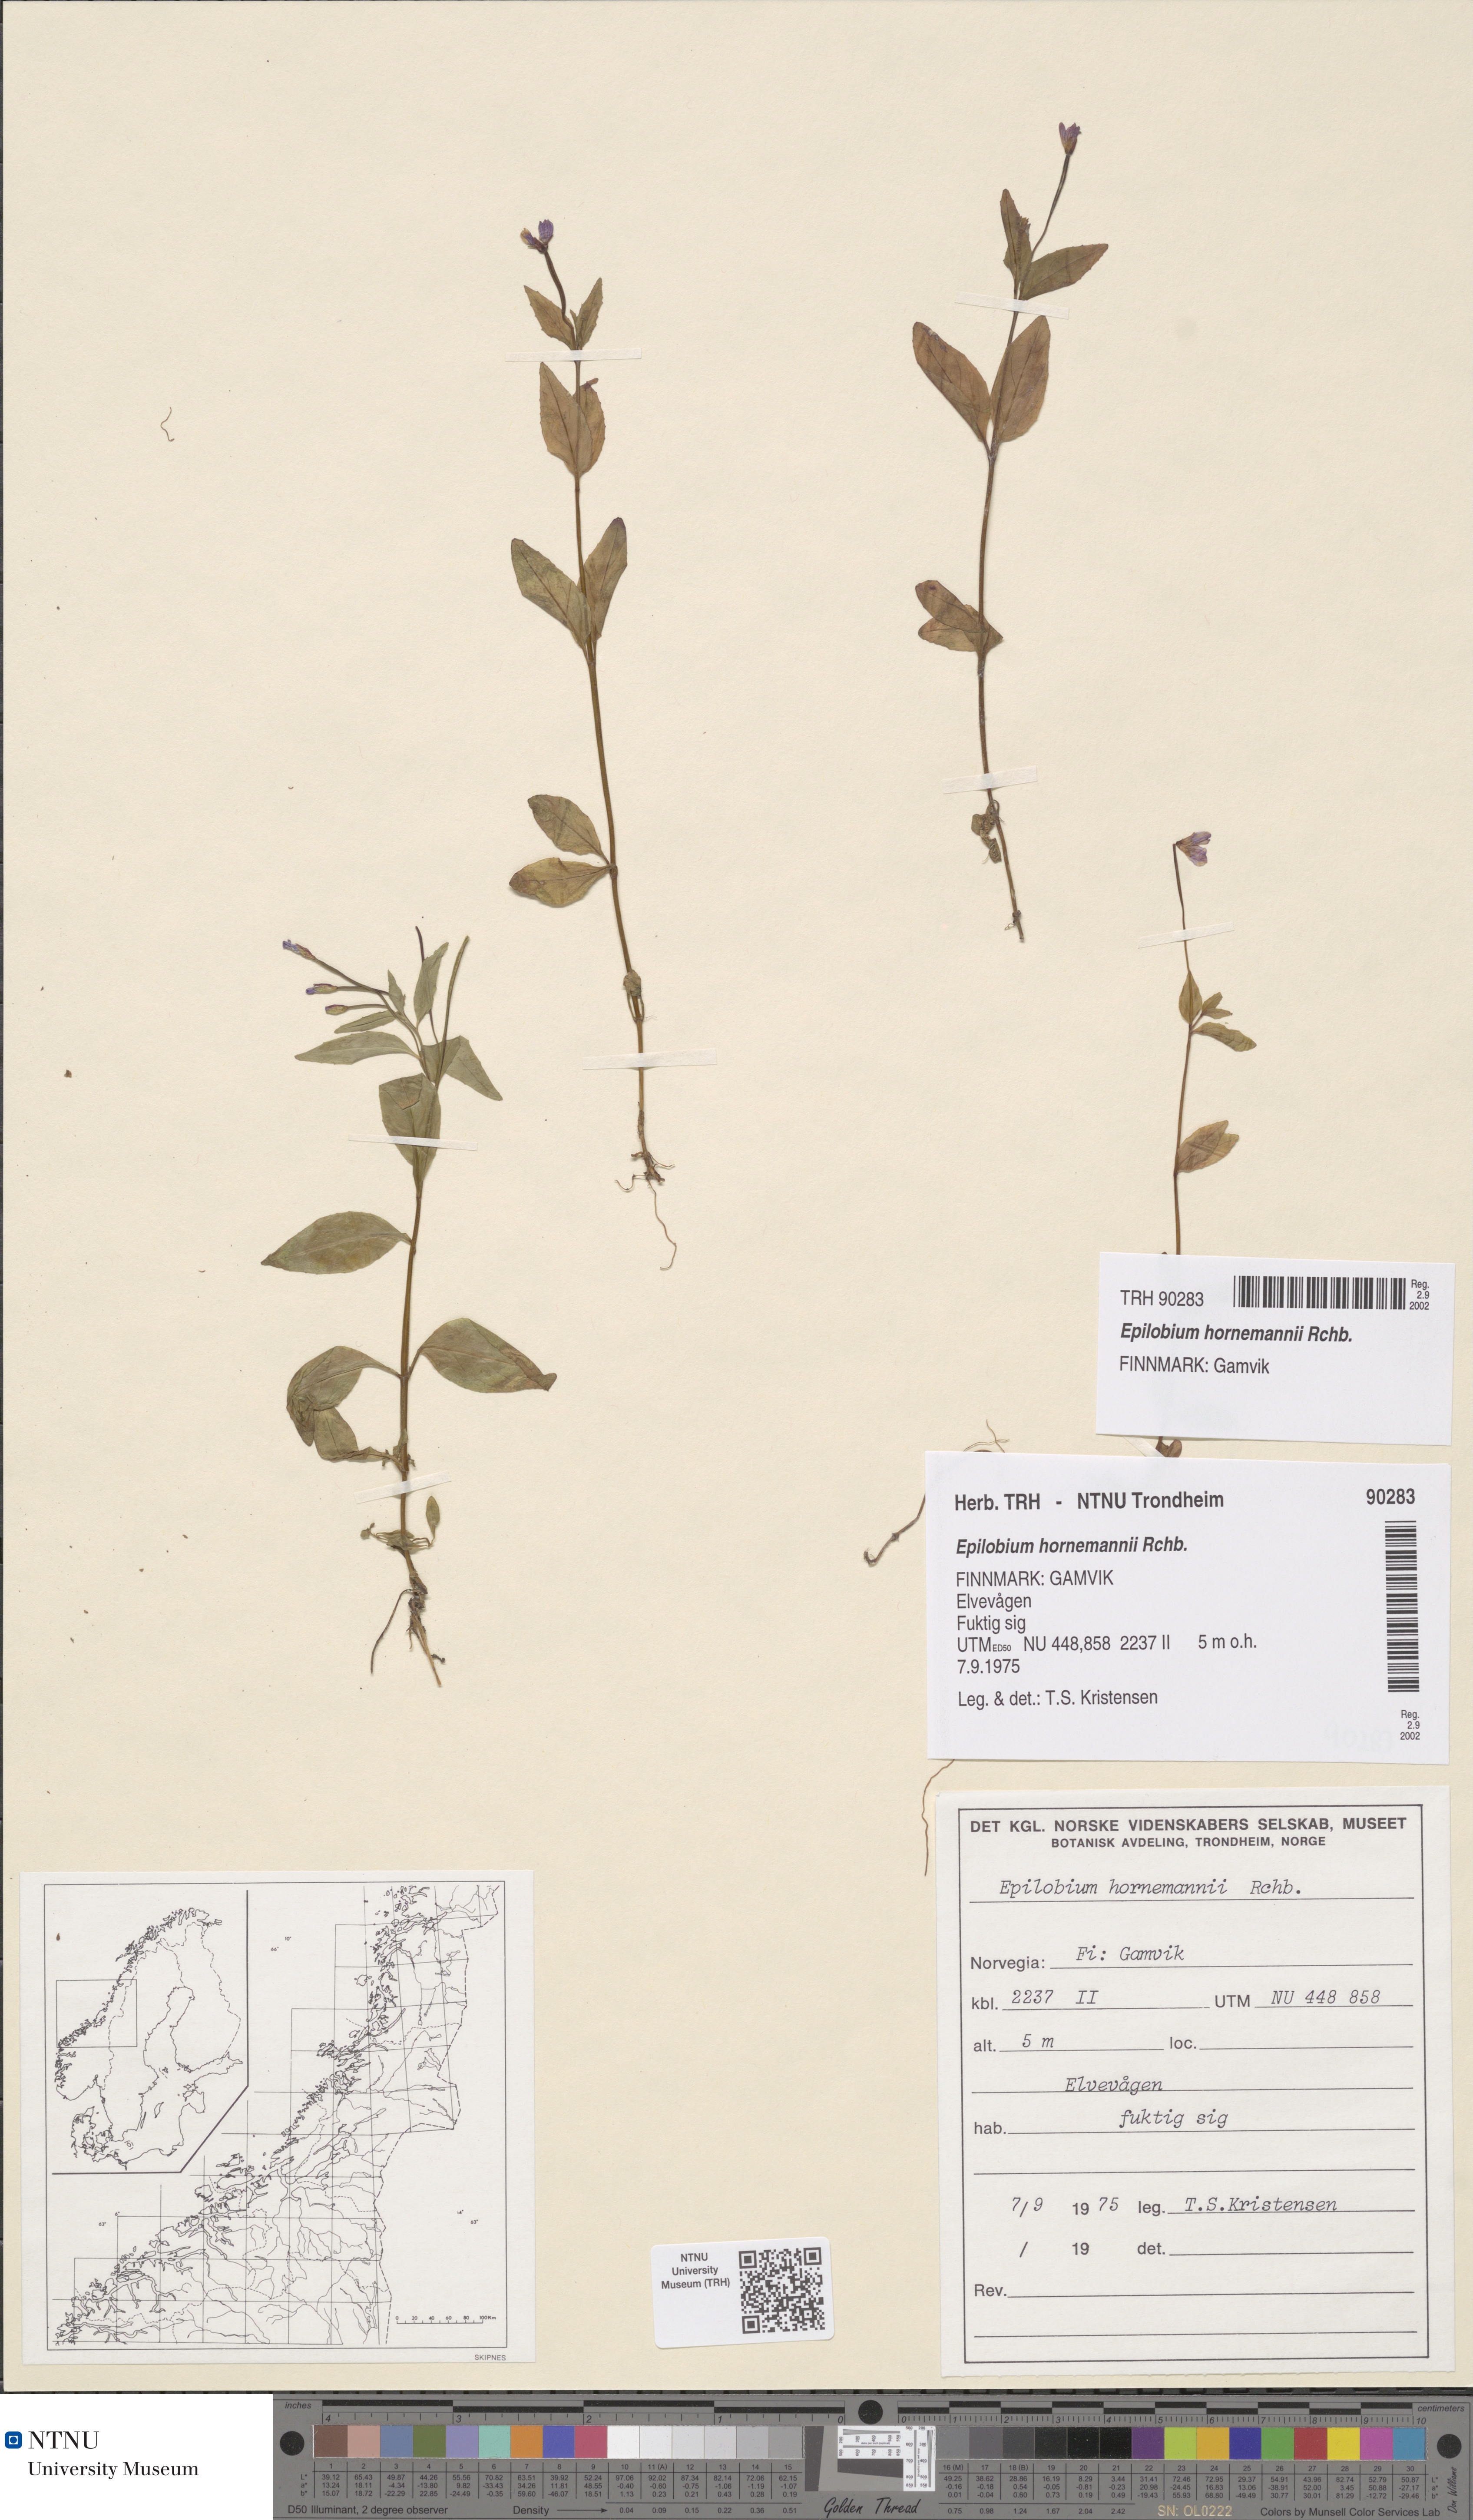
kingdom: Plantae
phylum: Tracheophyta
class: Magnoliopsida
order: Myrtales
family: Onagraceae
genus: Epilobium
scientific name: Epilobium hornemannii
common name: Hornemann's willowherb
